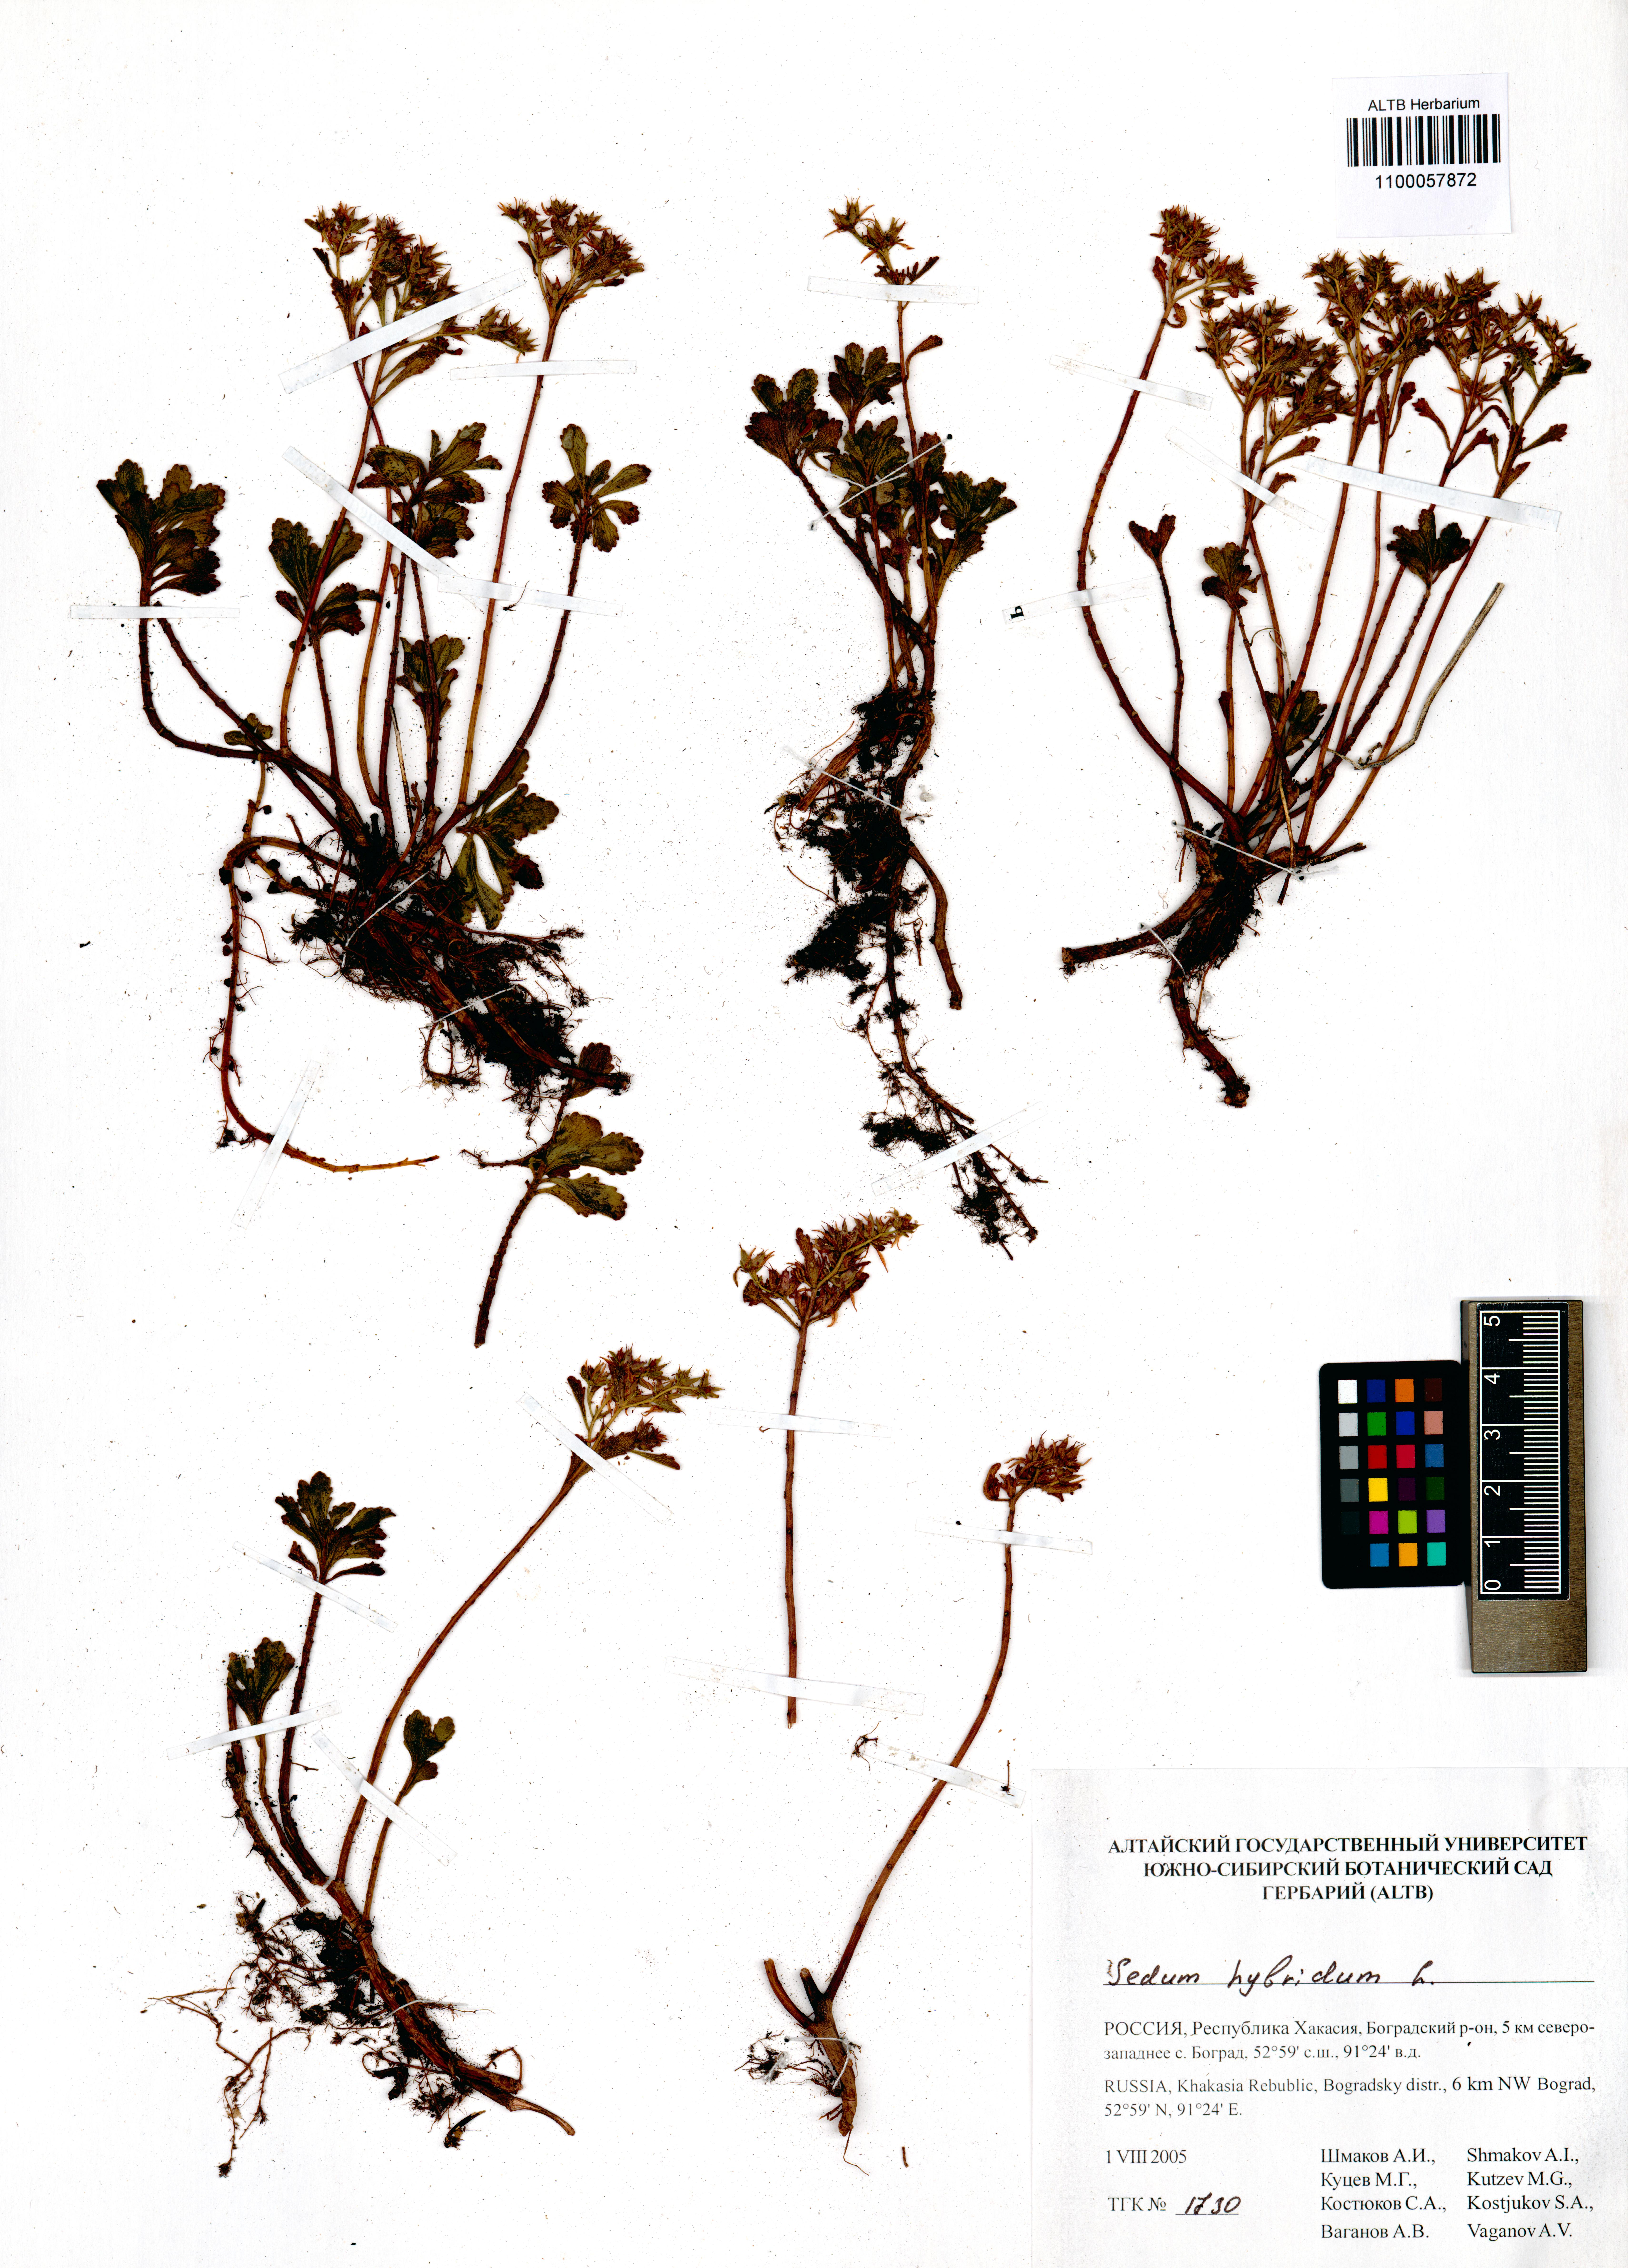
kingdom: Plantae
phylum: Tracheophyta
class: Magnoliopsida
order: Saxifragales
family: Crassulaceae
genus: Phedimus
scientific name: Phedimus hybridus
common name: Hybrid stonecrop
